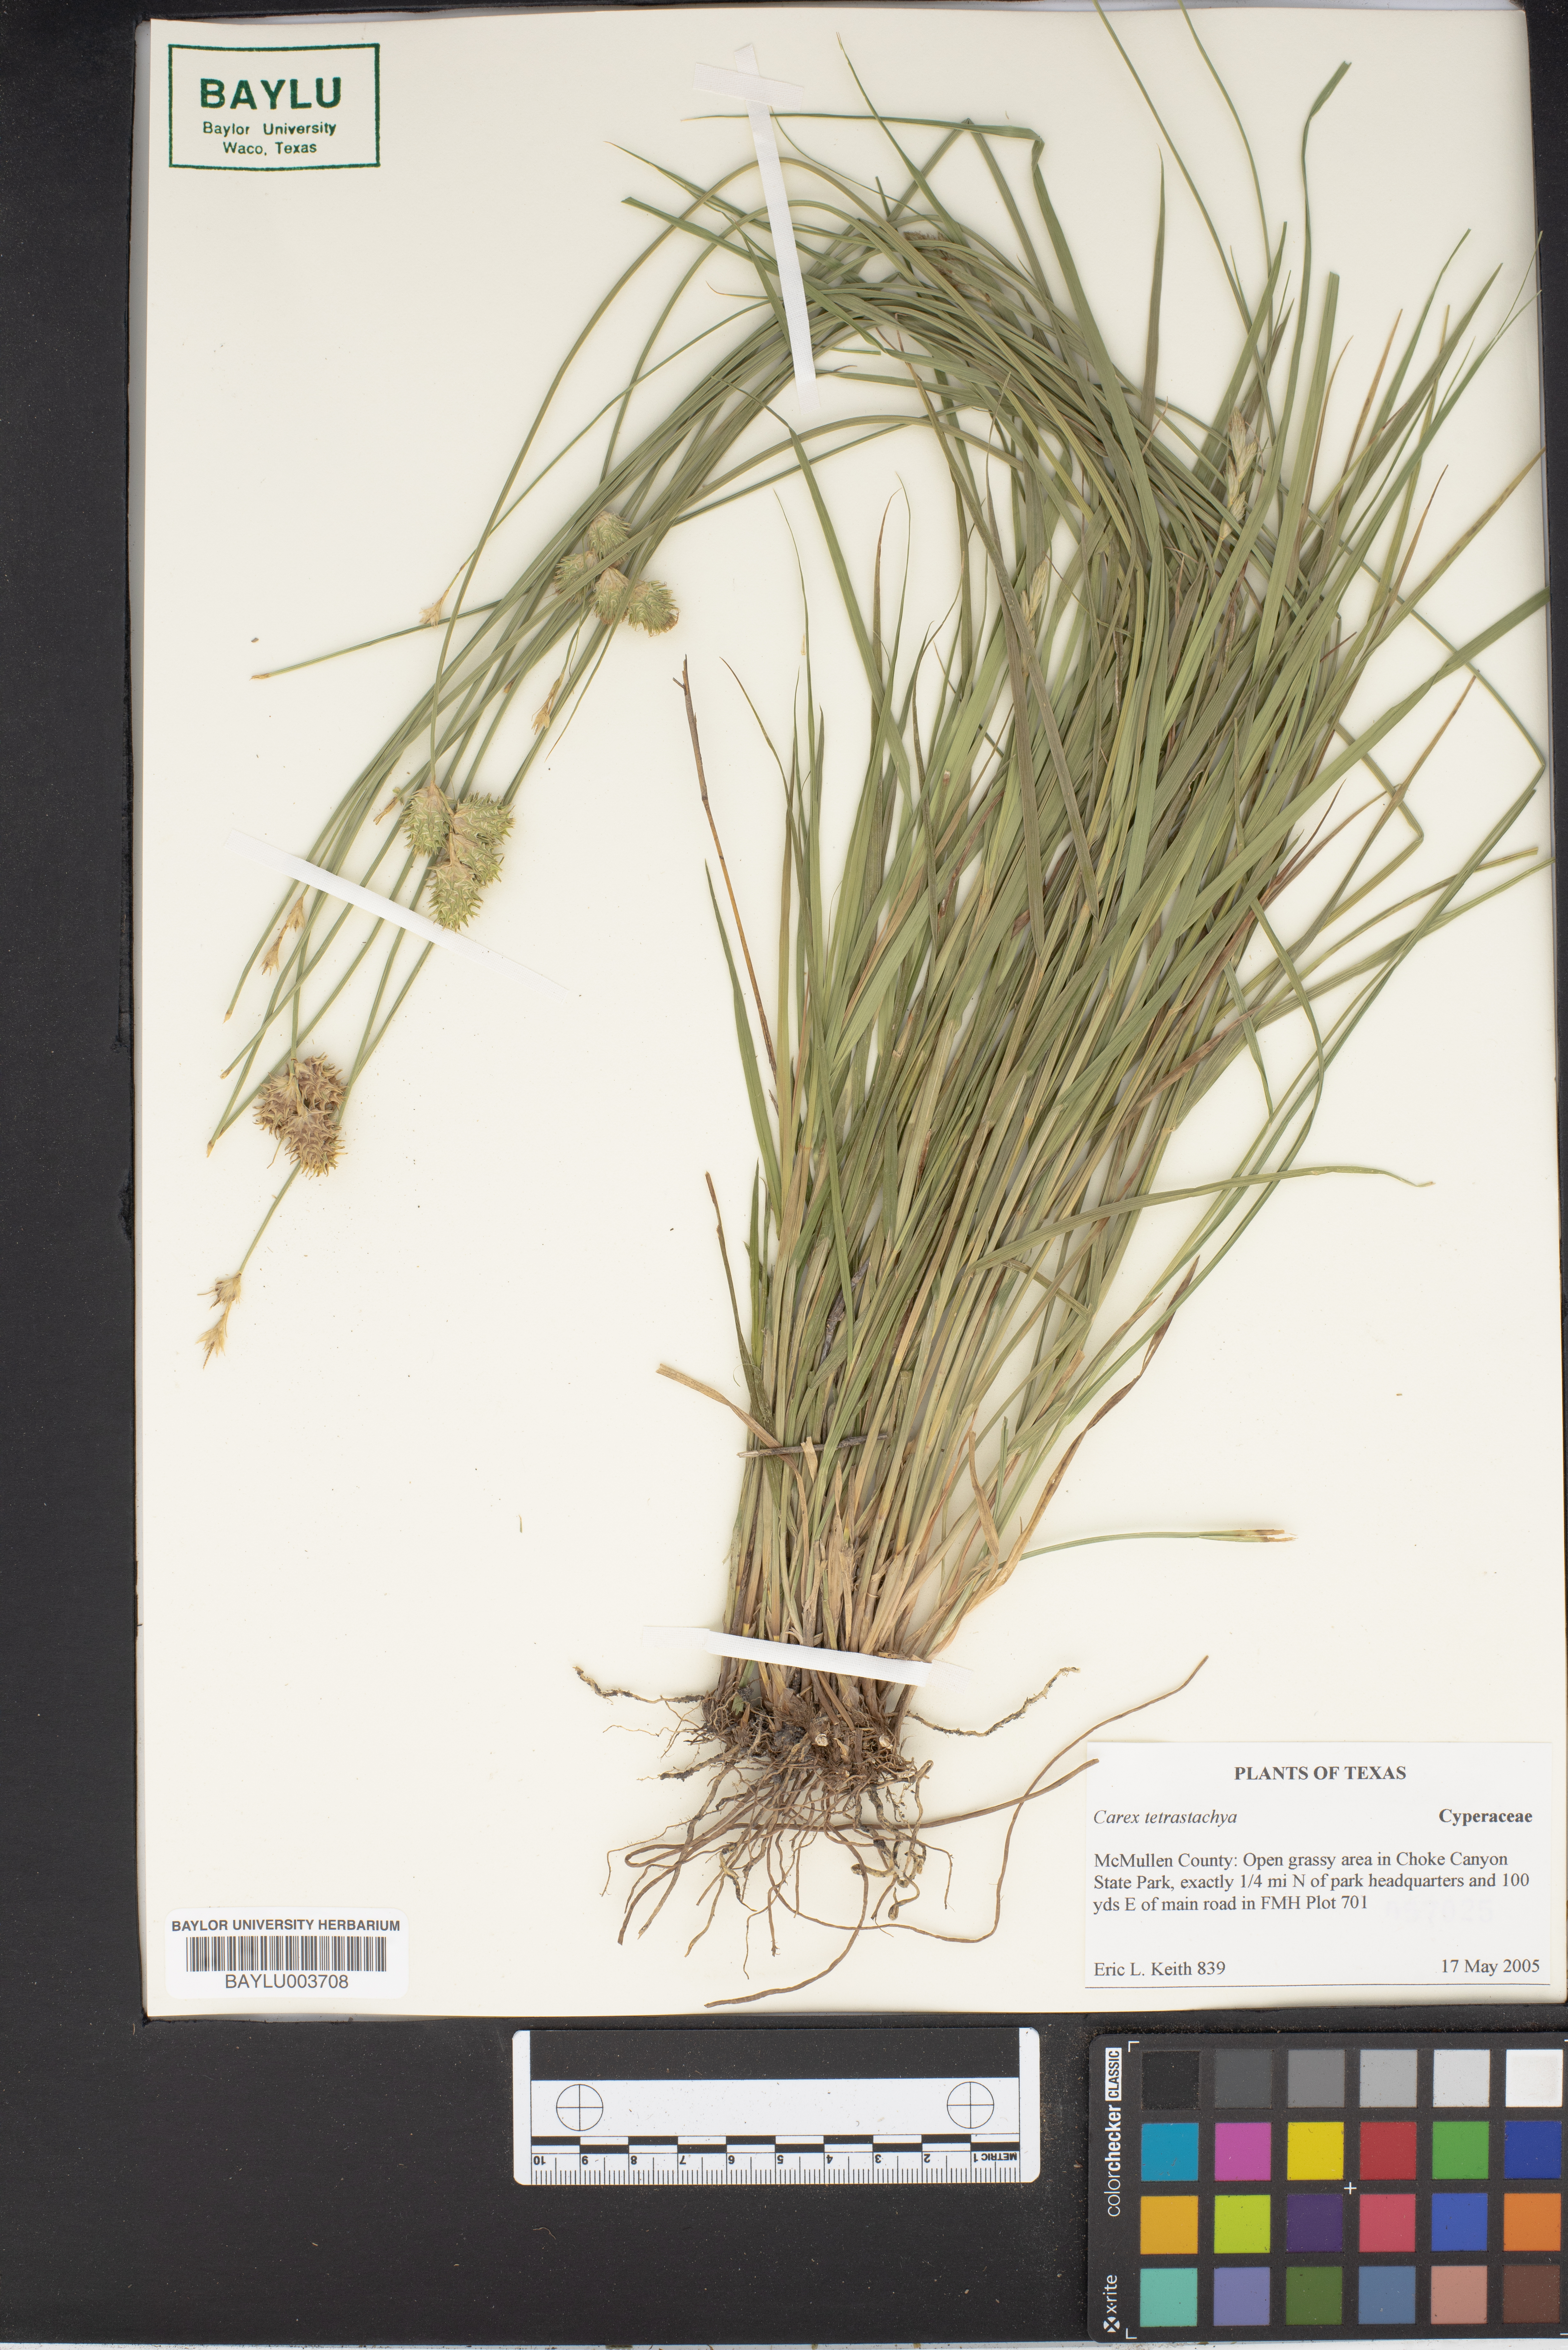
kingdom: Plantae
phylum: Tracheophyta
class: Liliopsida
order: Poales
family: Cyperaceae
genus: Carex
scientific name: Carex tetrastachya
